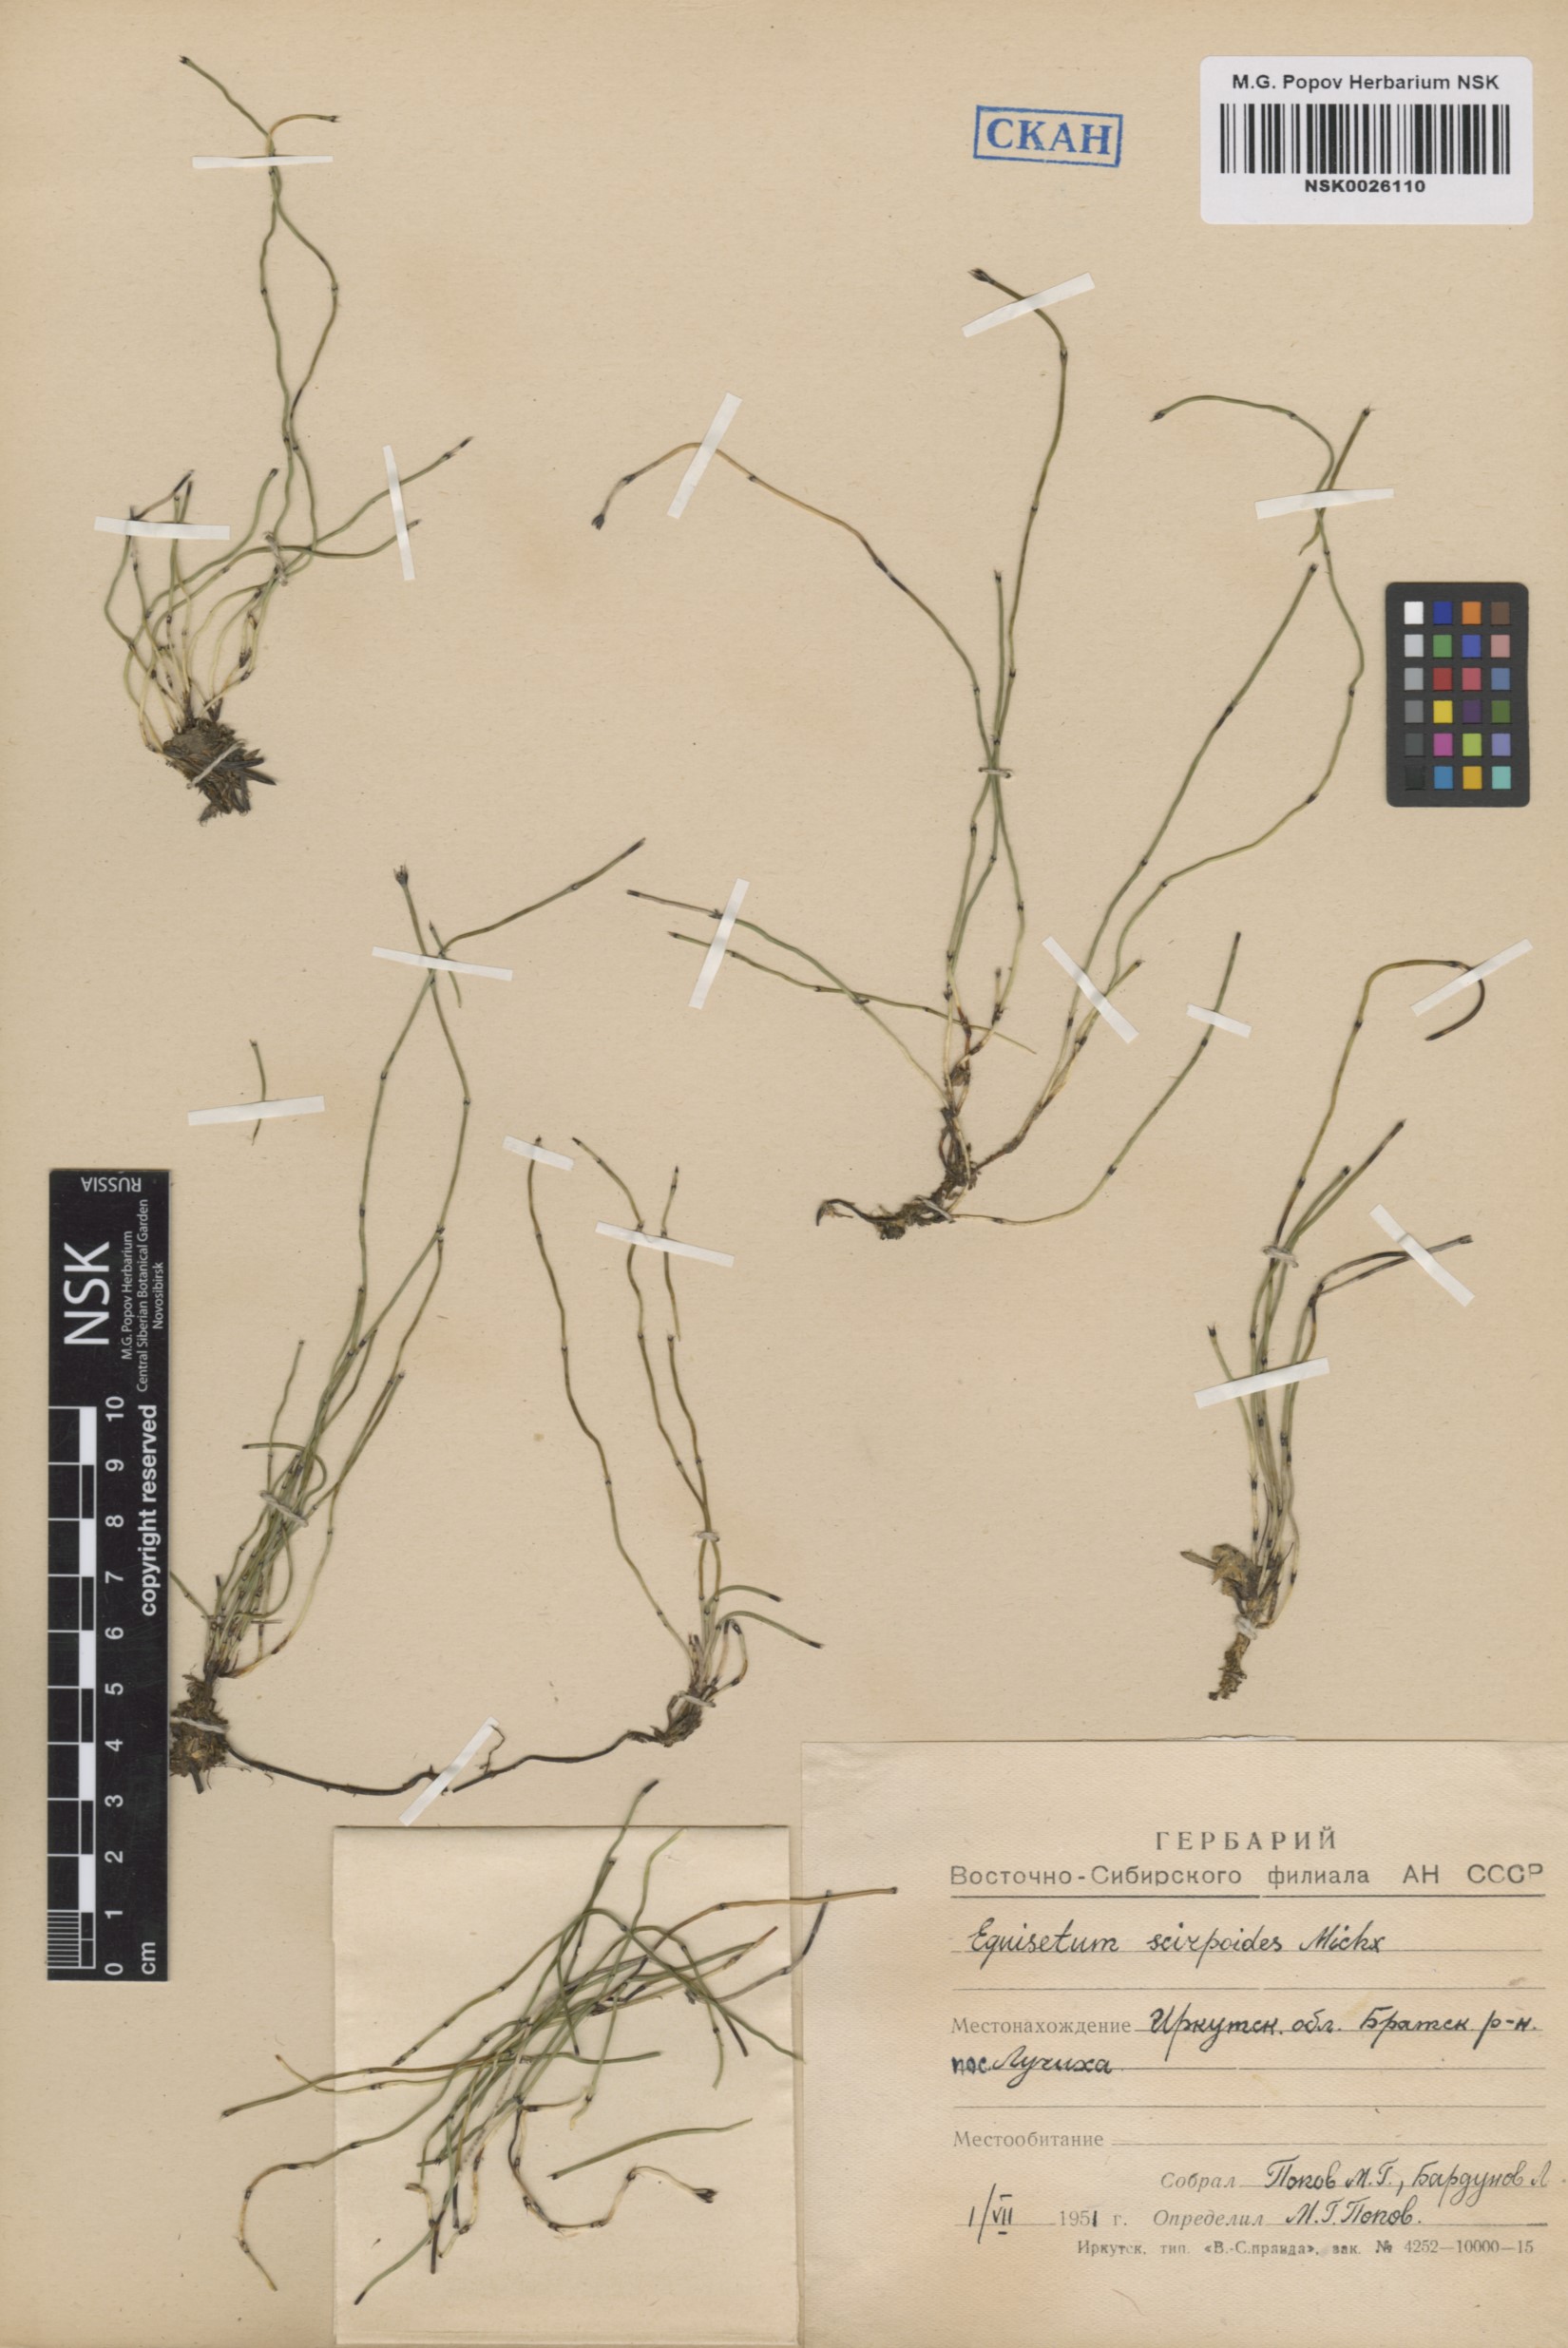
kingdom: Plantae
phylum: Tracheophyta
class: Polypodiopsida
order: Equisetales
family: Equisetaceae
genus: Equisetum
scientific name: Equisetum scirpoides
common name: Delicate horsetail
